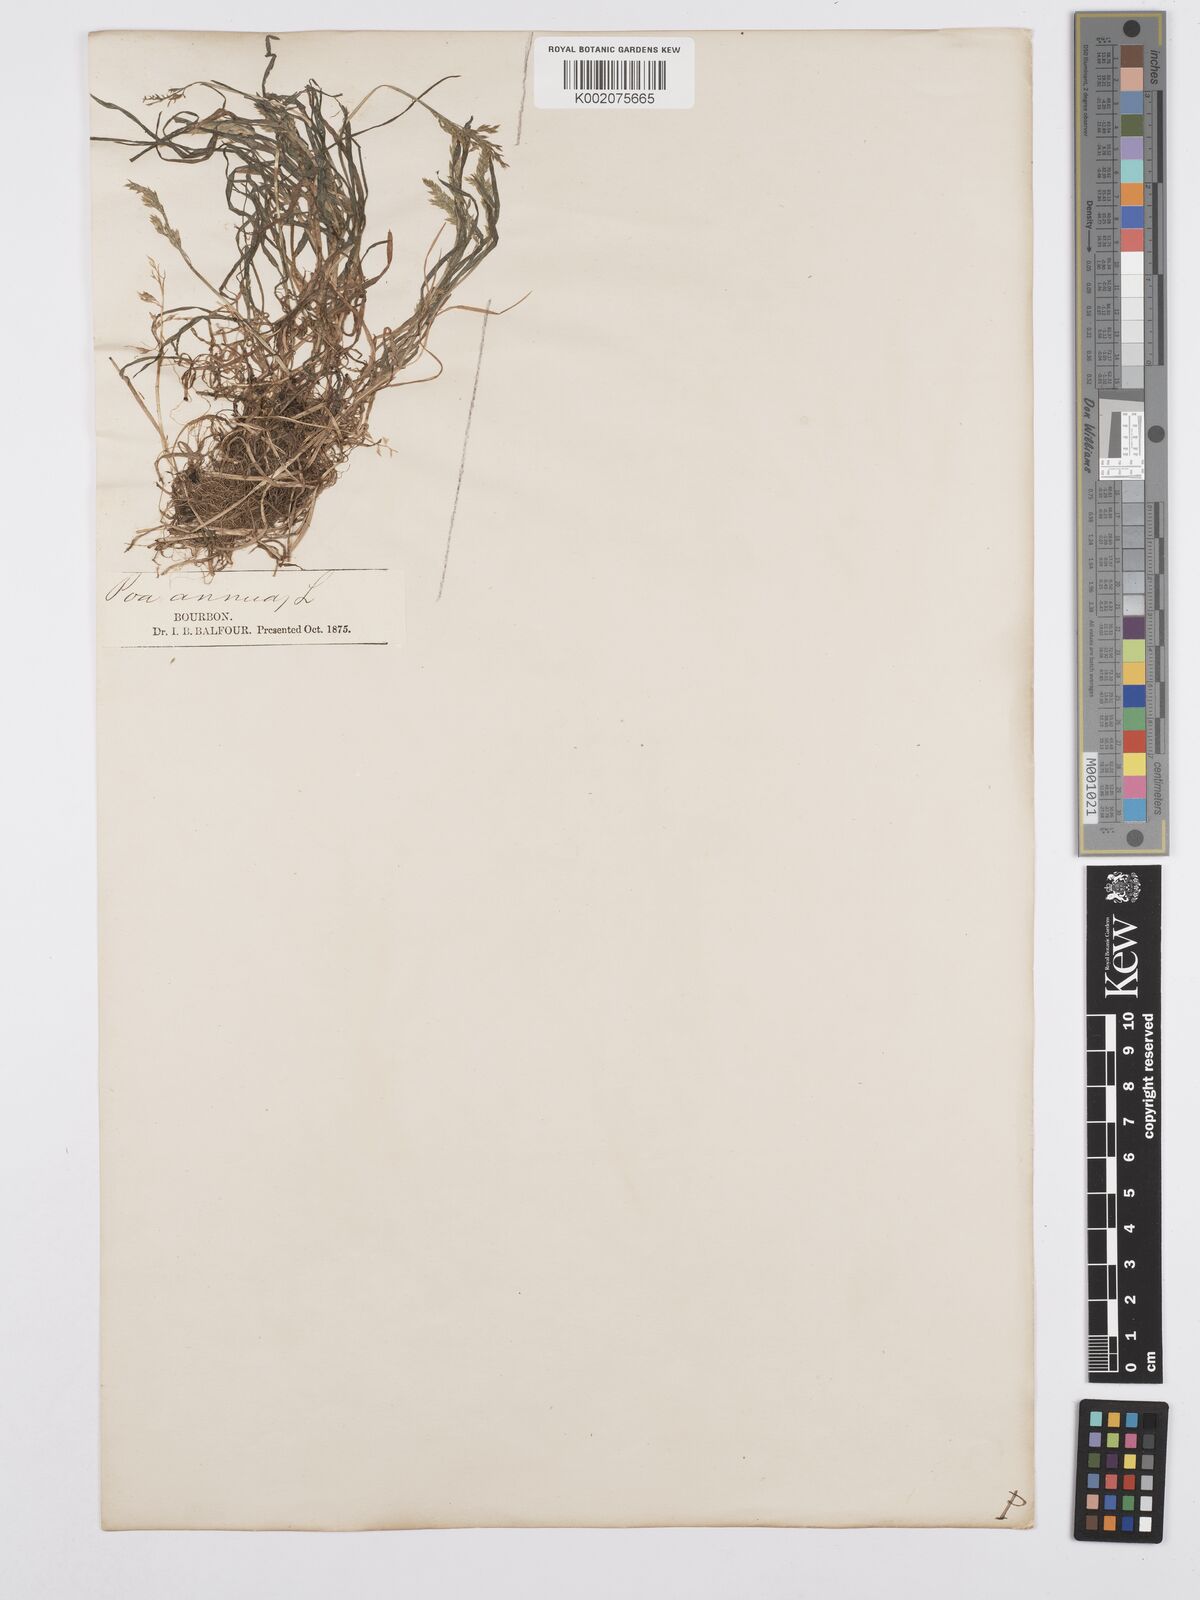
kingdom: Plantae
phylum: Tracheophyta
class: Liliopsida
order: Poales
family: Poaceae
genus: Poa
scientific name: Poa annua
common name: Annual bluegrass
